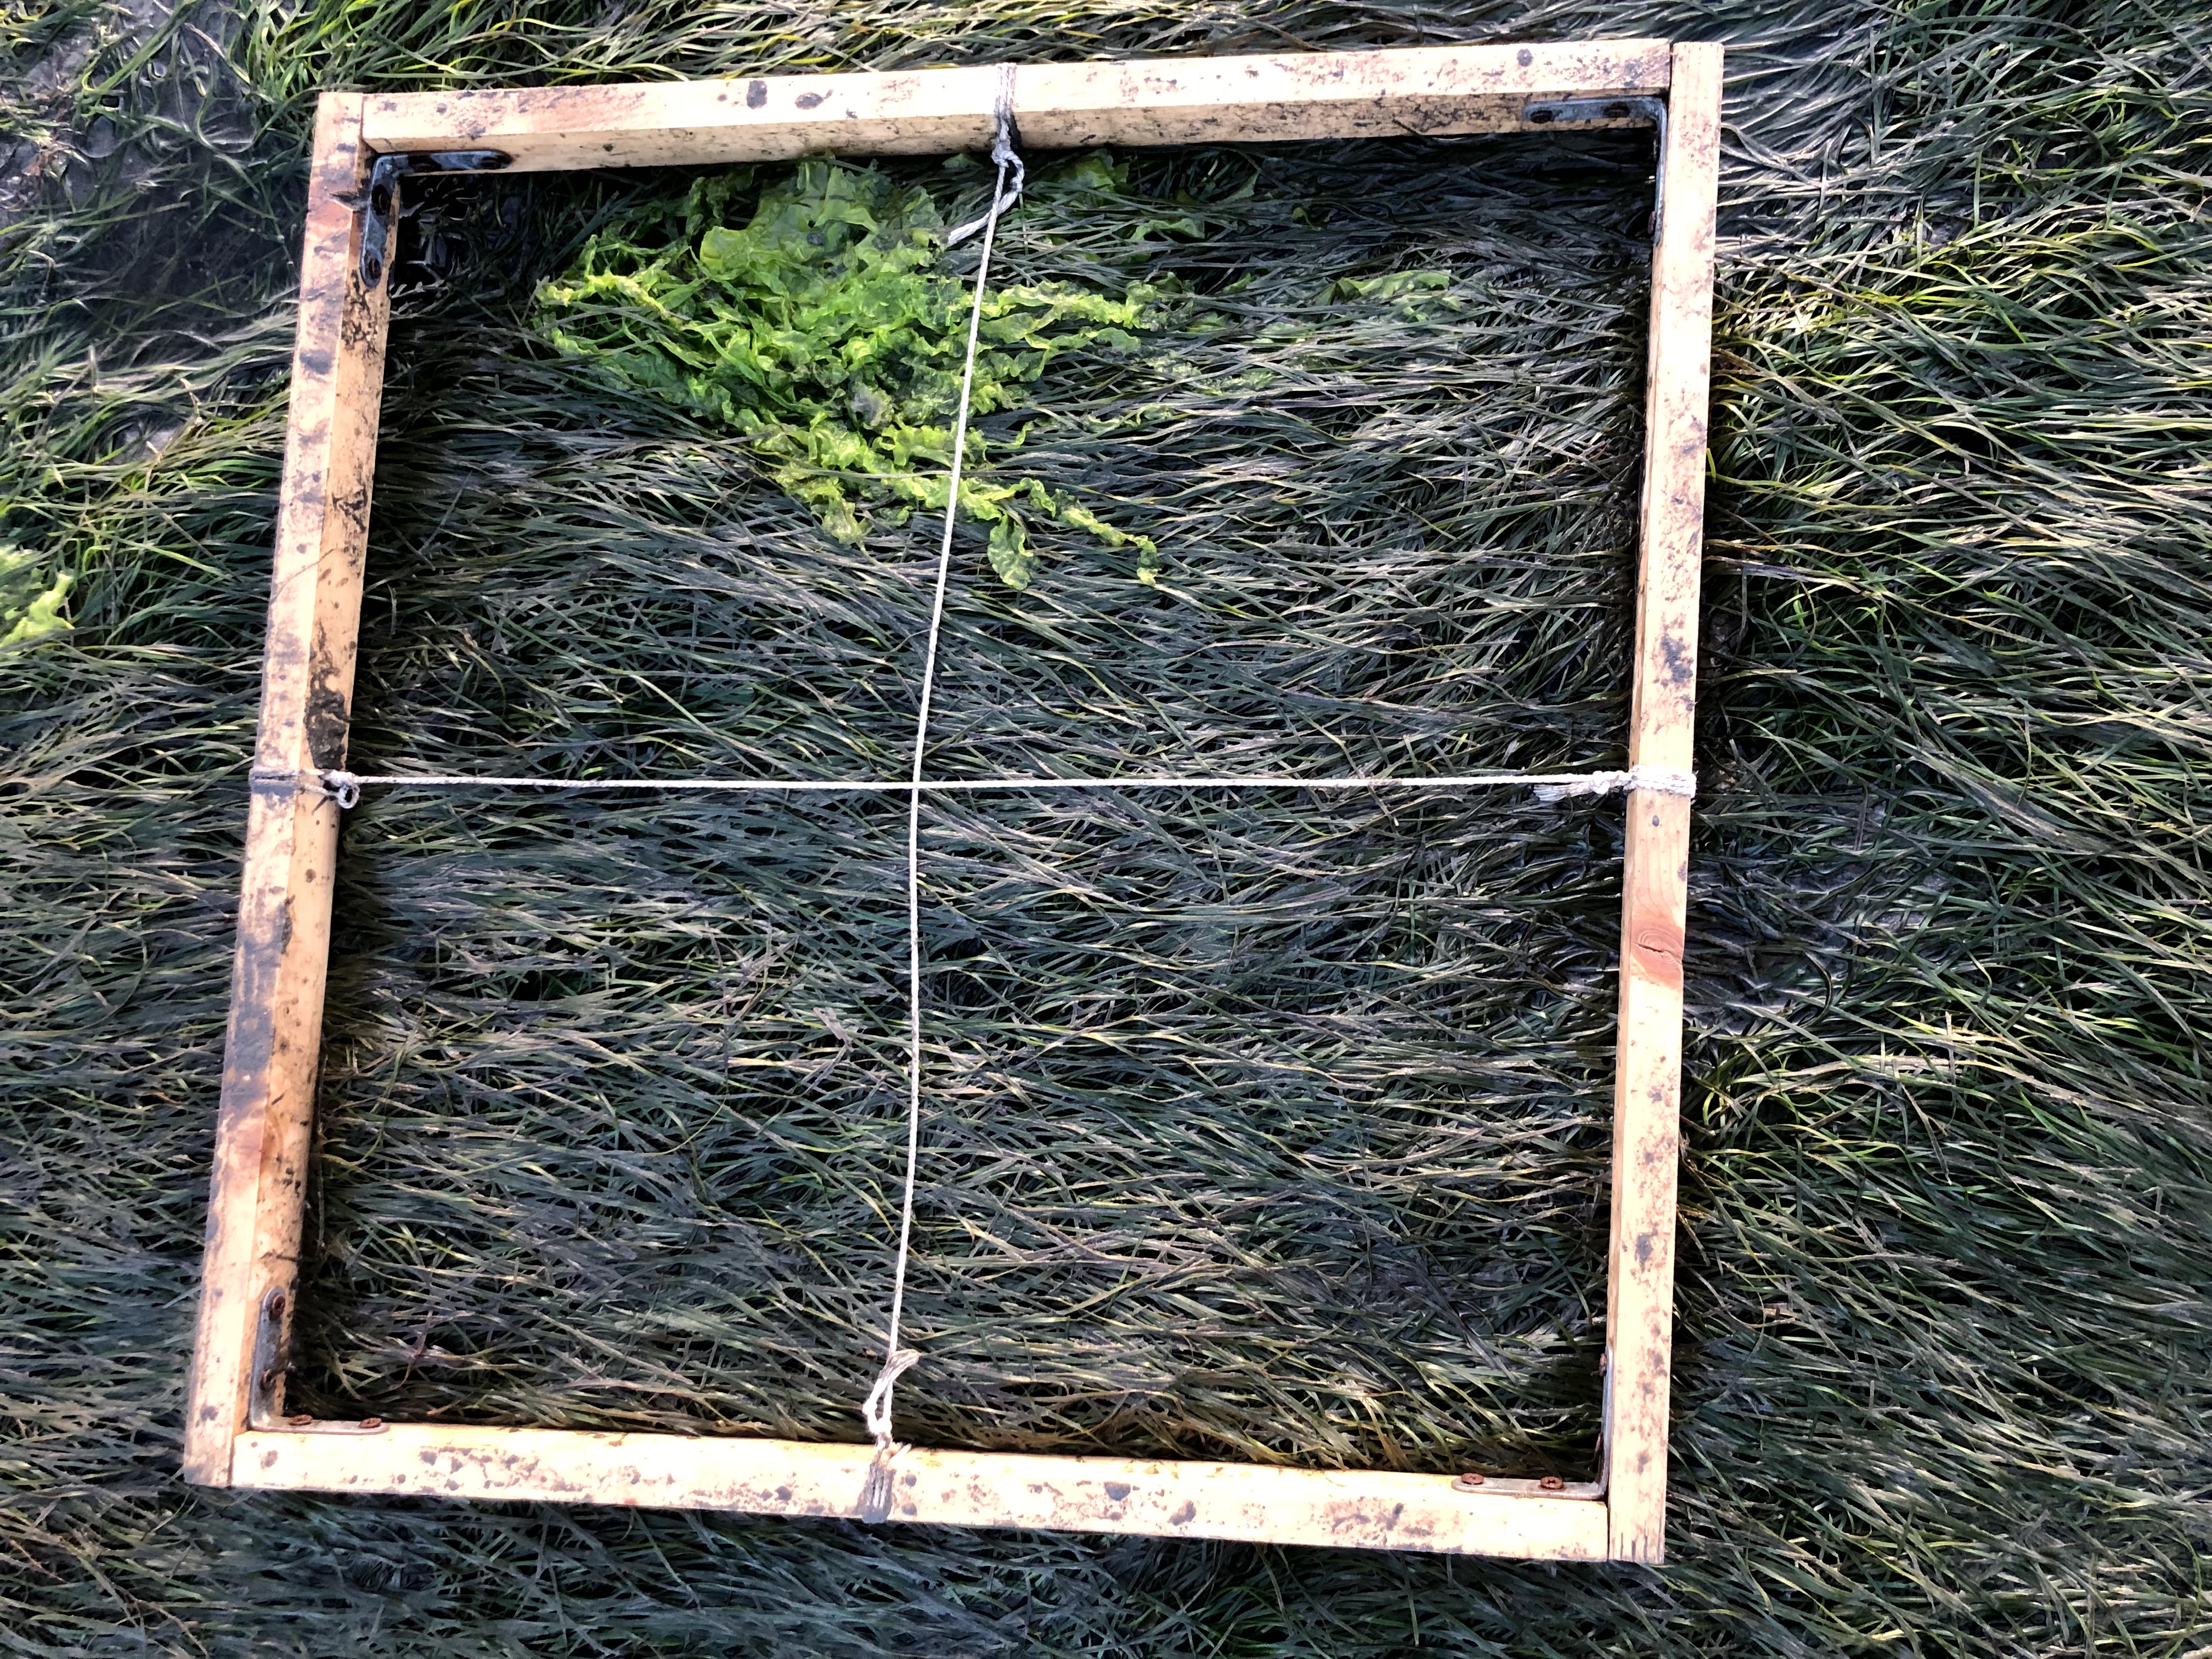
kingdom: Plantae
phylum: Tracheophyta
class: Liliopsida
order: Alismatales
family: Zosteraceae
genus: Zostera
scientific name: Zostera noltii
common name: Dwarf eelgrass
